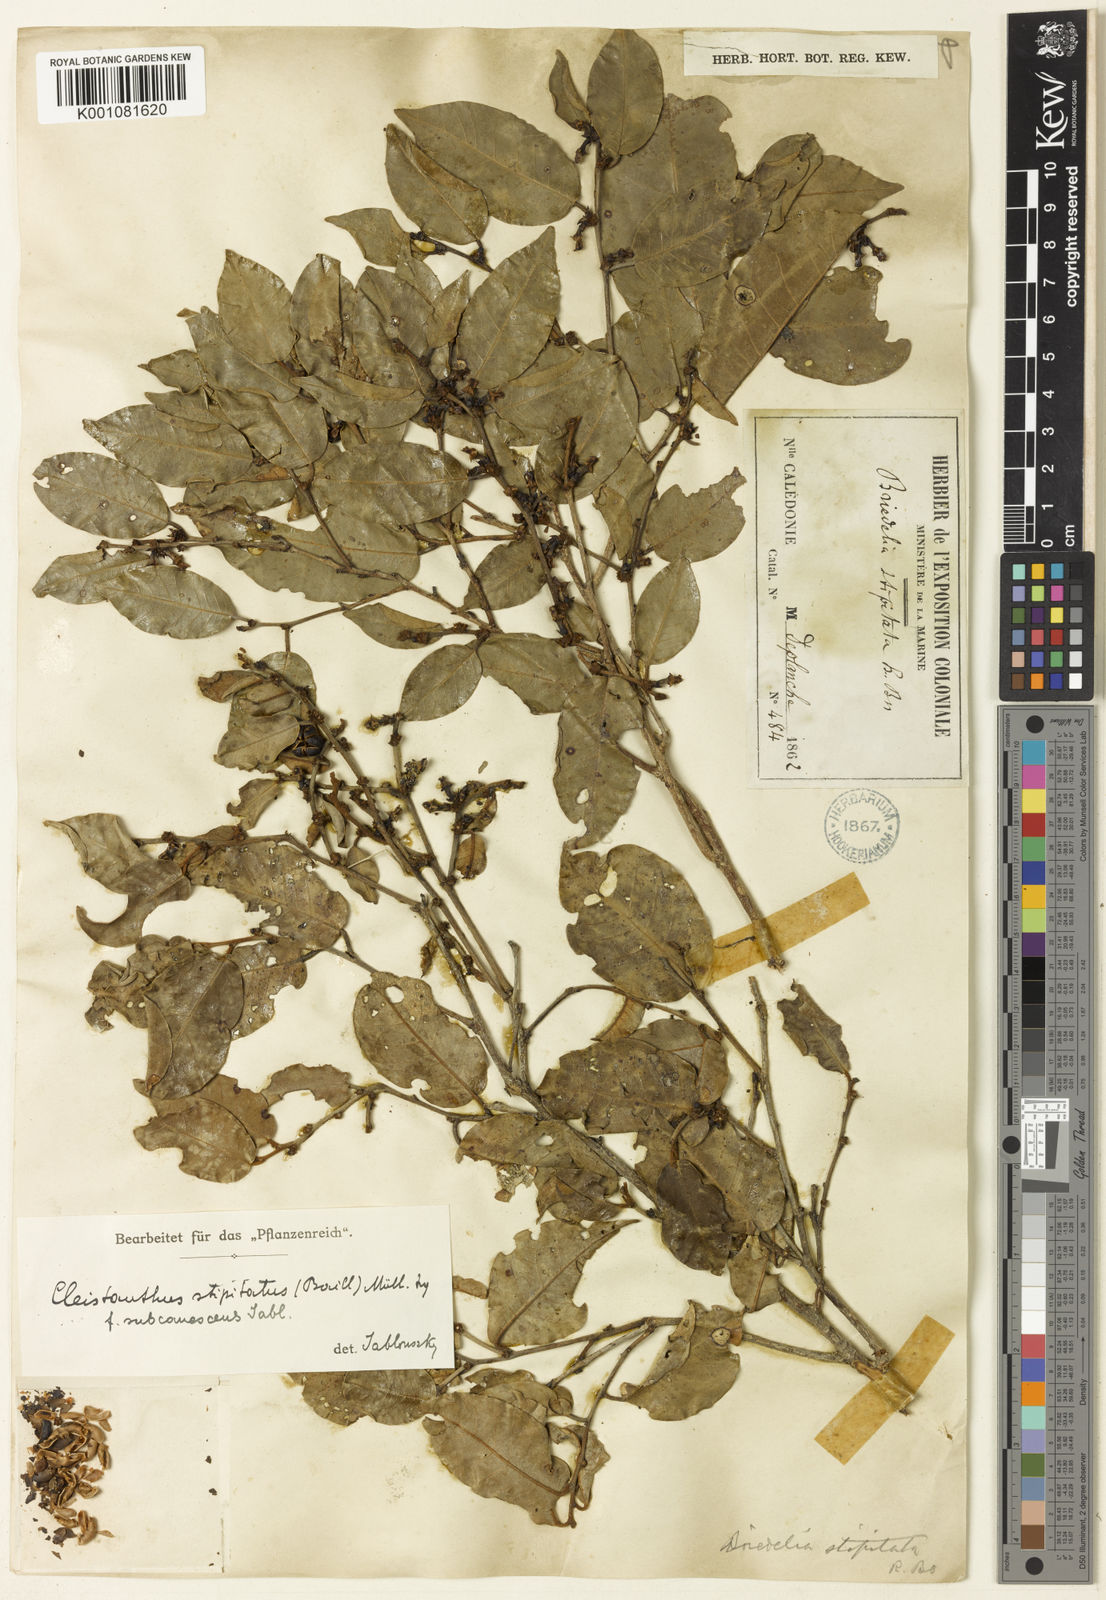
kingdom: Plantae
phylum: Tracheophyta
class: Magnoliopsida
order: Malpighiales
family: Phyllanthaceae
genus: Cleistanthus
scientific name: Cleistanthus
